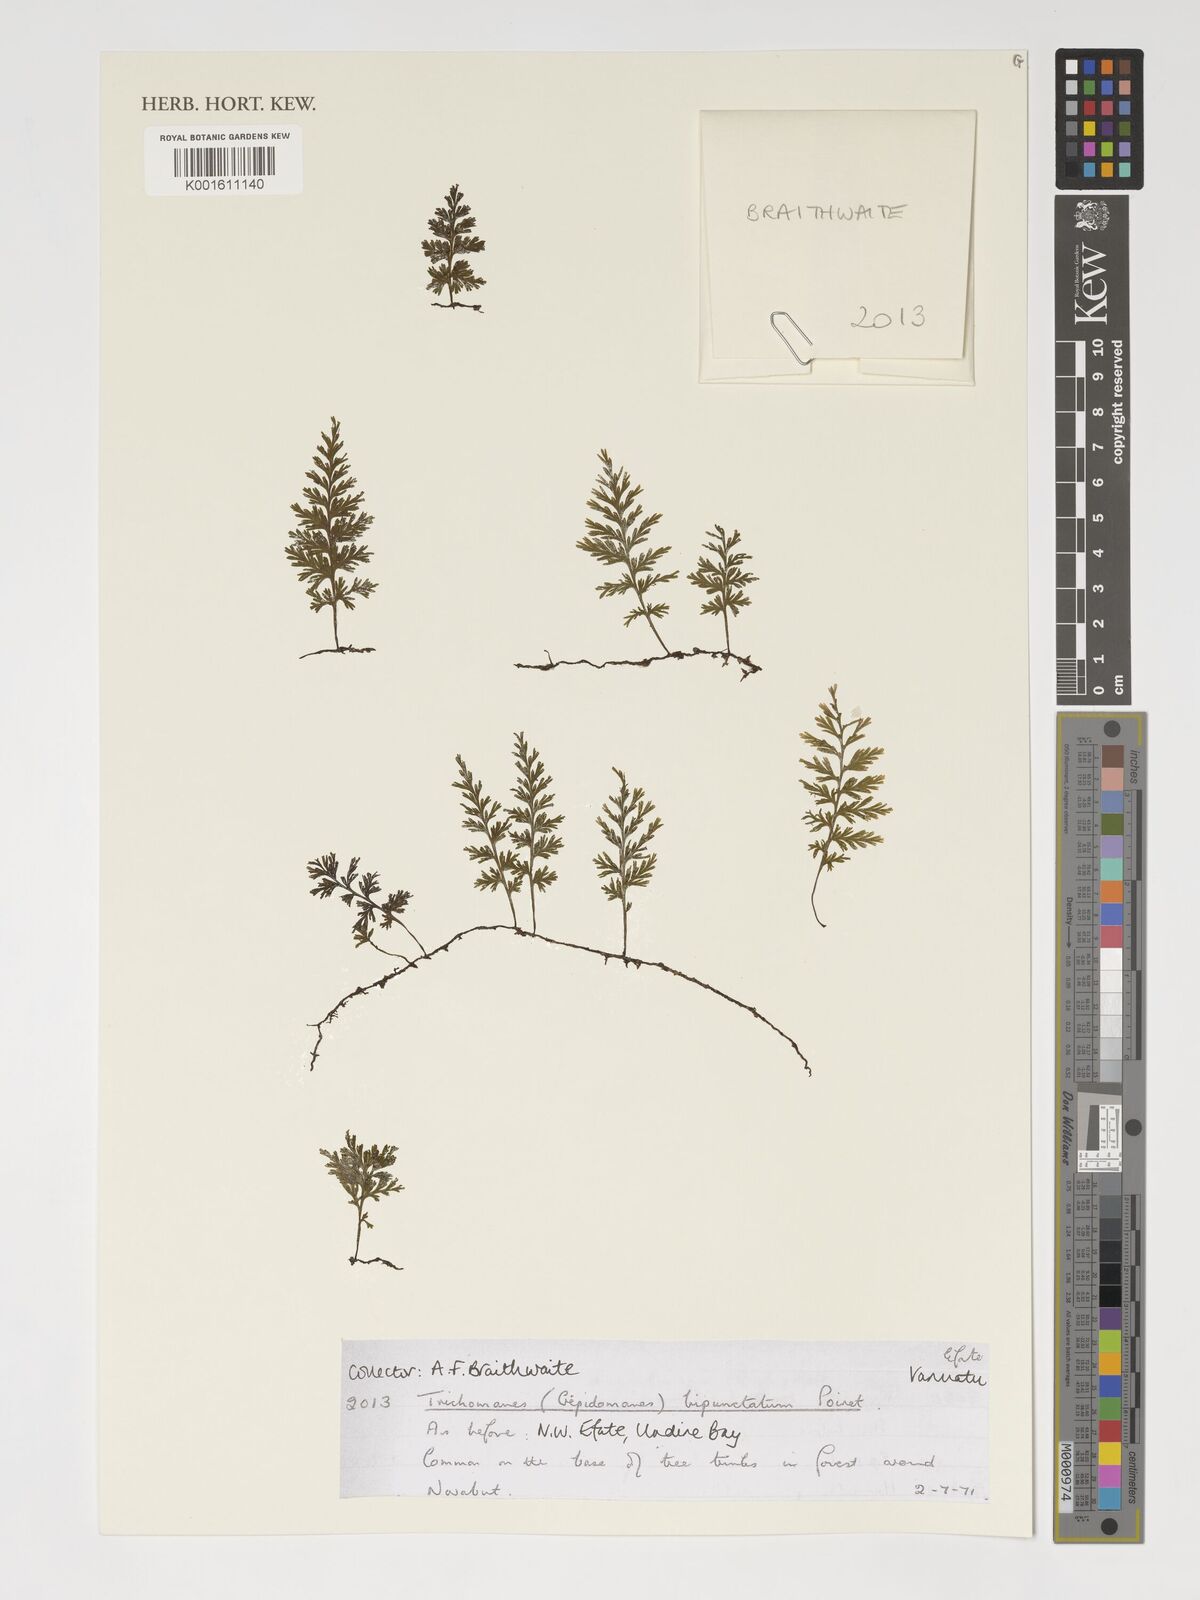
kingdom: Plantae
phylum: Tracheophyta
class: Polypodiopsida
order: Hymenophyllales
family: Hymenophyllaceae
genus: Crepidomanes
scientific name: Crepidomanes bipunctatum
